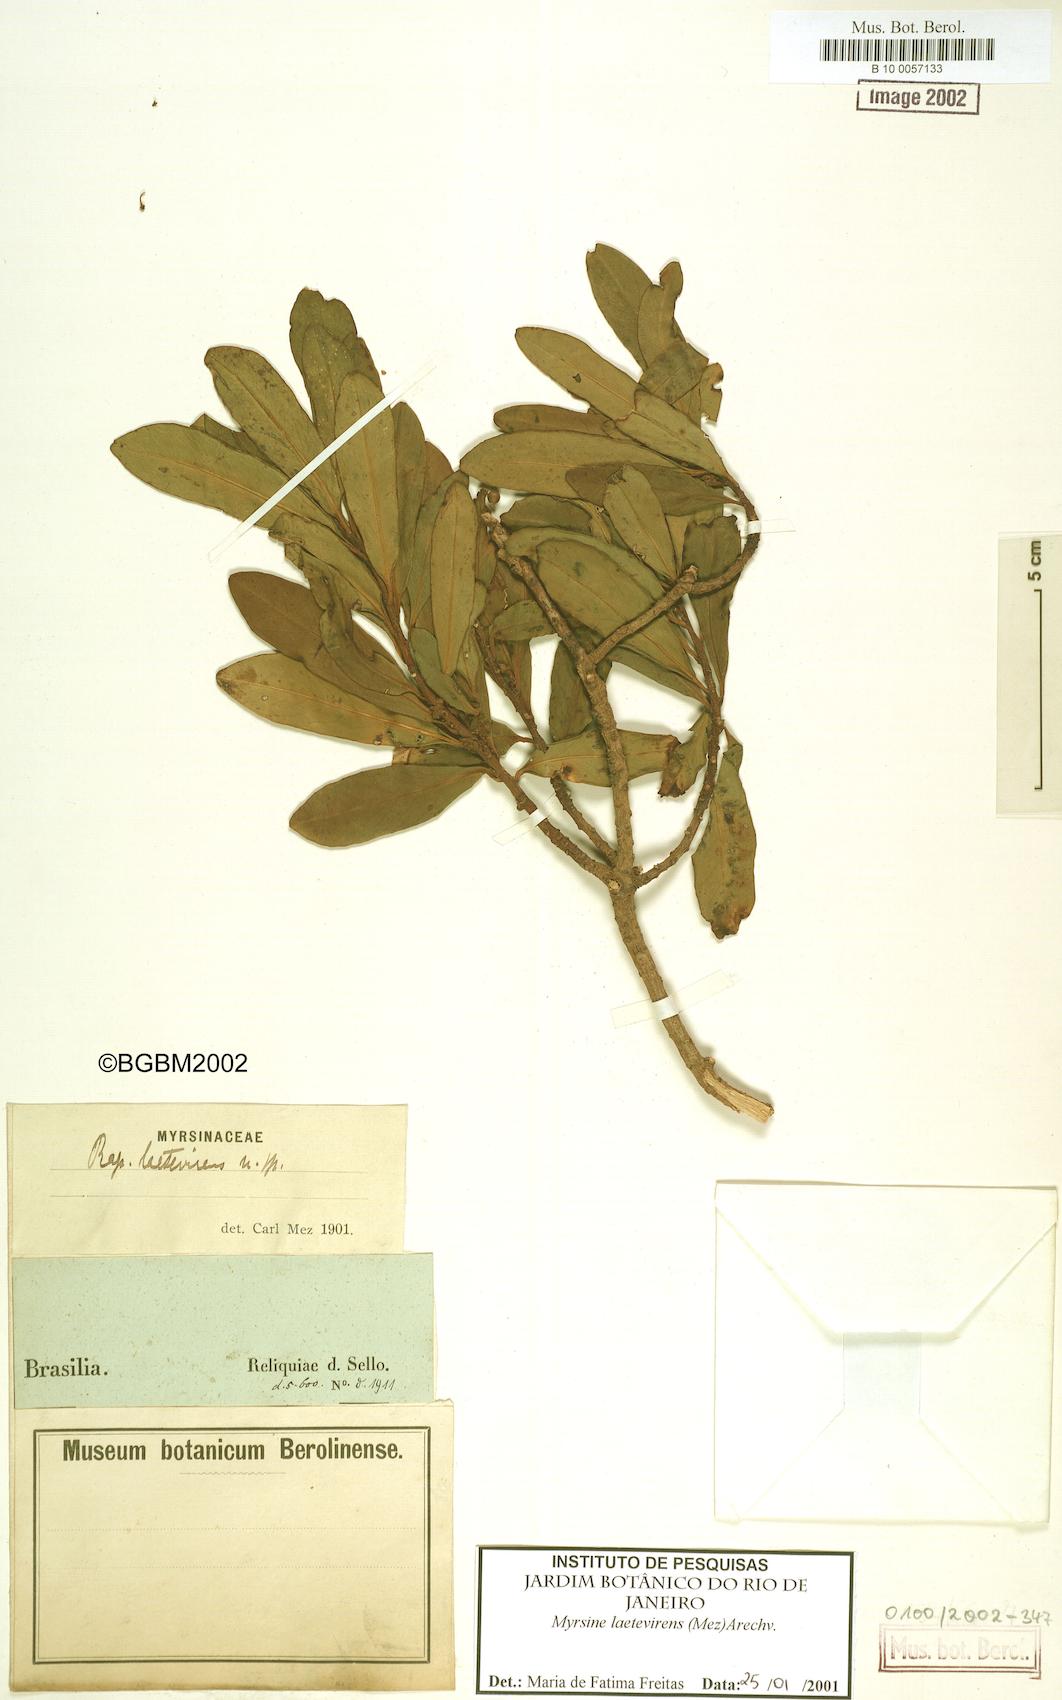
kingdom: Plantae
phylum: Tracheophyta
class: Magnoliopsida
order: Ericales
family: Primulaceae
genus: Myrsine
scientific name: Myrsine laetevirens
